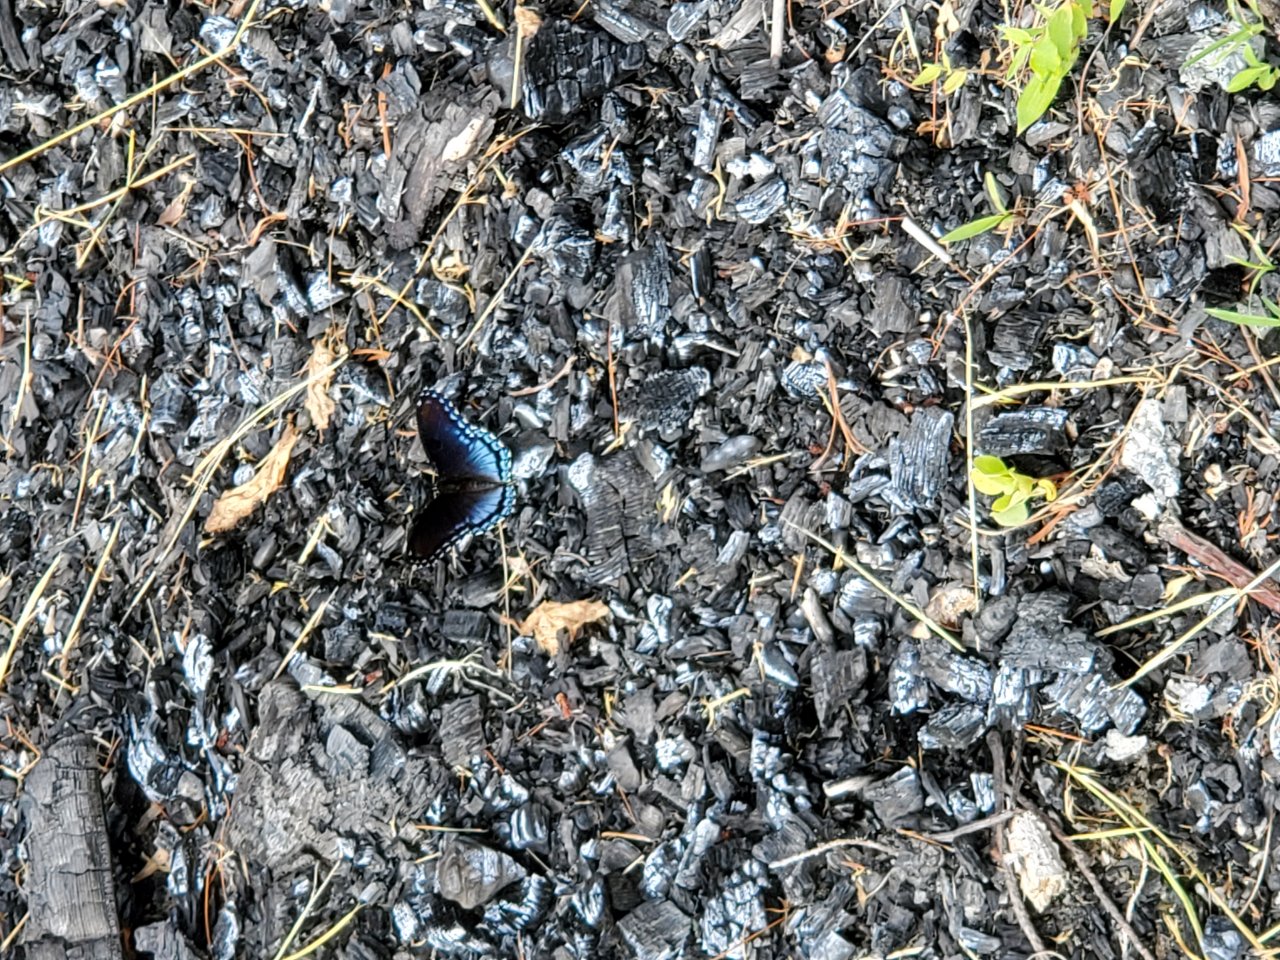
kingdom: Animalia
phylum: Arthropoda
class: Insecta
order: Lepidoptera
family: Nymphalidae
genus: Limenitis
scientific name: Limenitis astyanax
